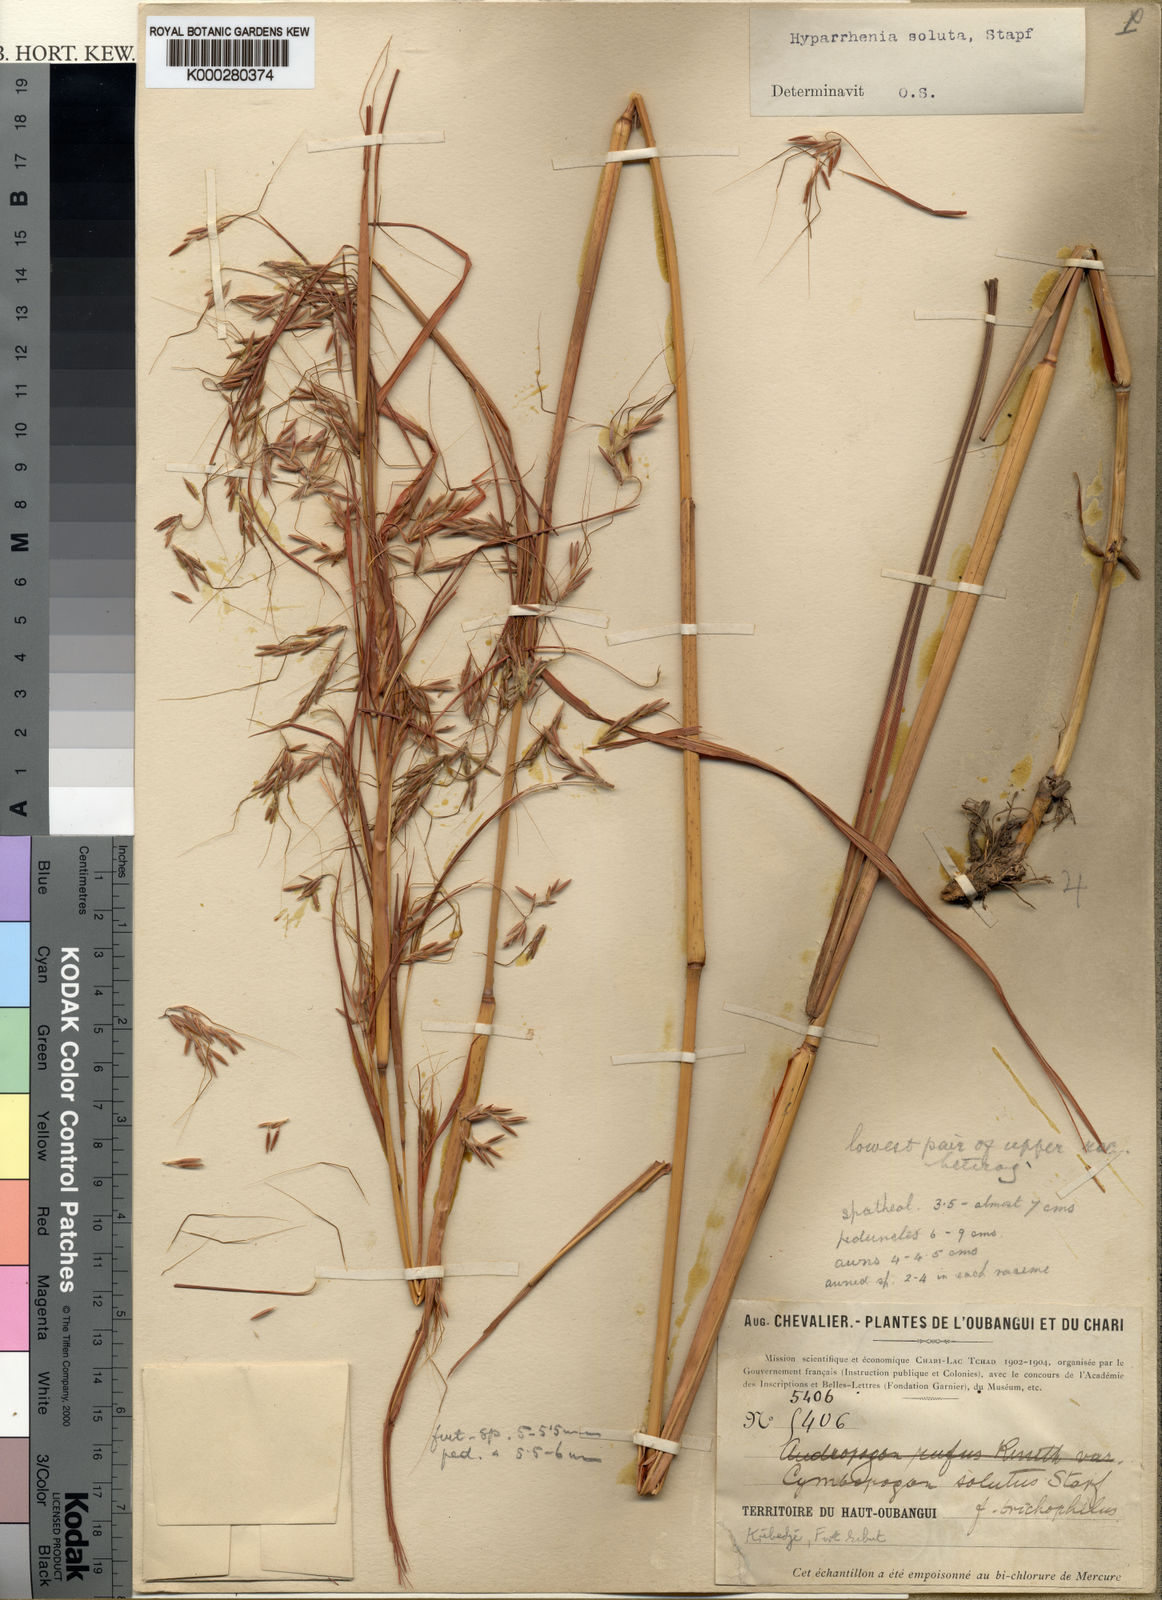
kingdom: Plantae
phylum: Tracheophyta
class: Liliopsida
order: Poales
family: Poaceae
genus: Hyparrhenia
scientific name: Hyparrhenia nyassae
